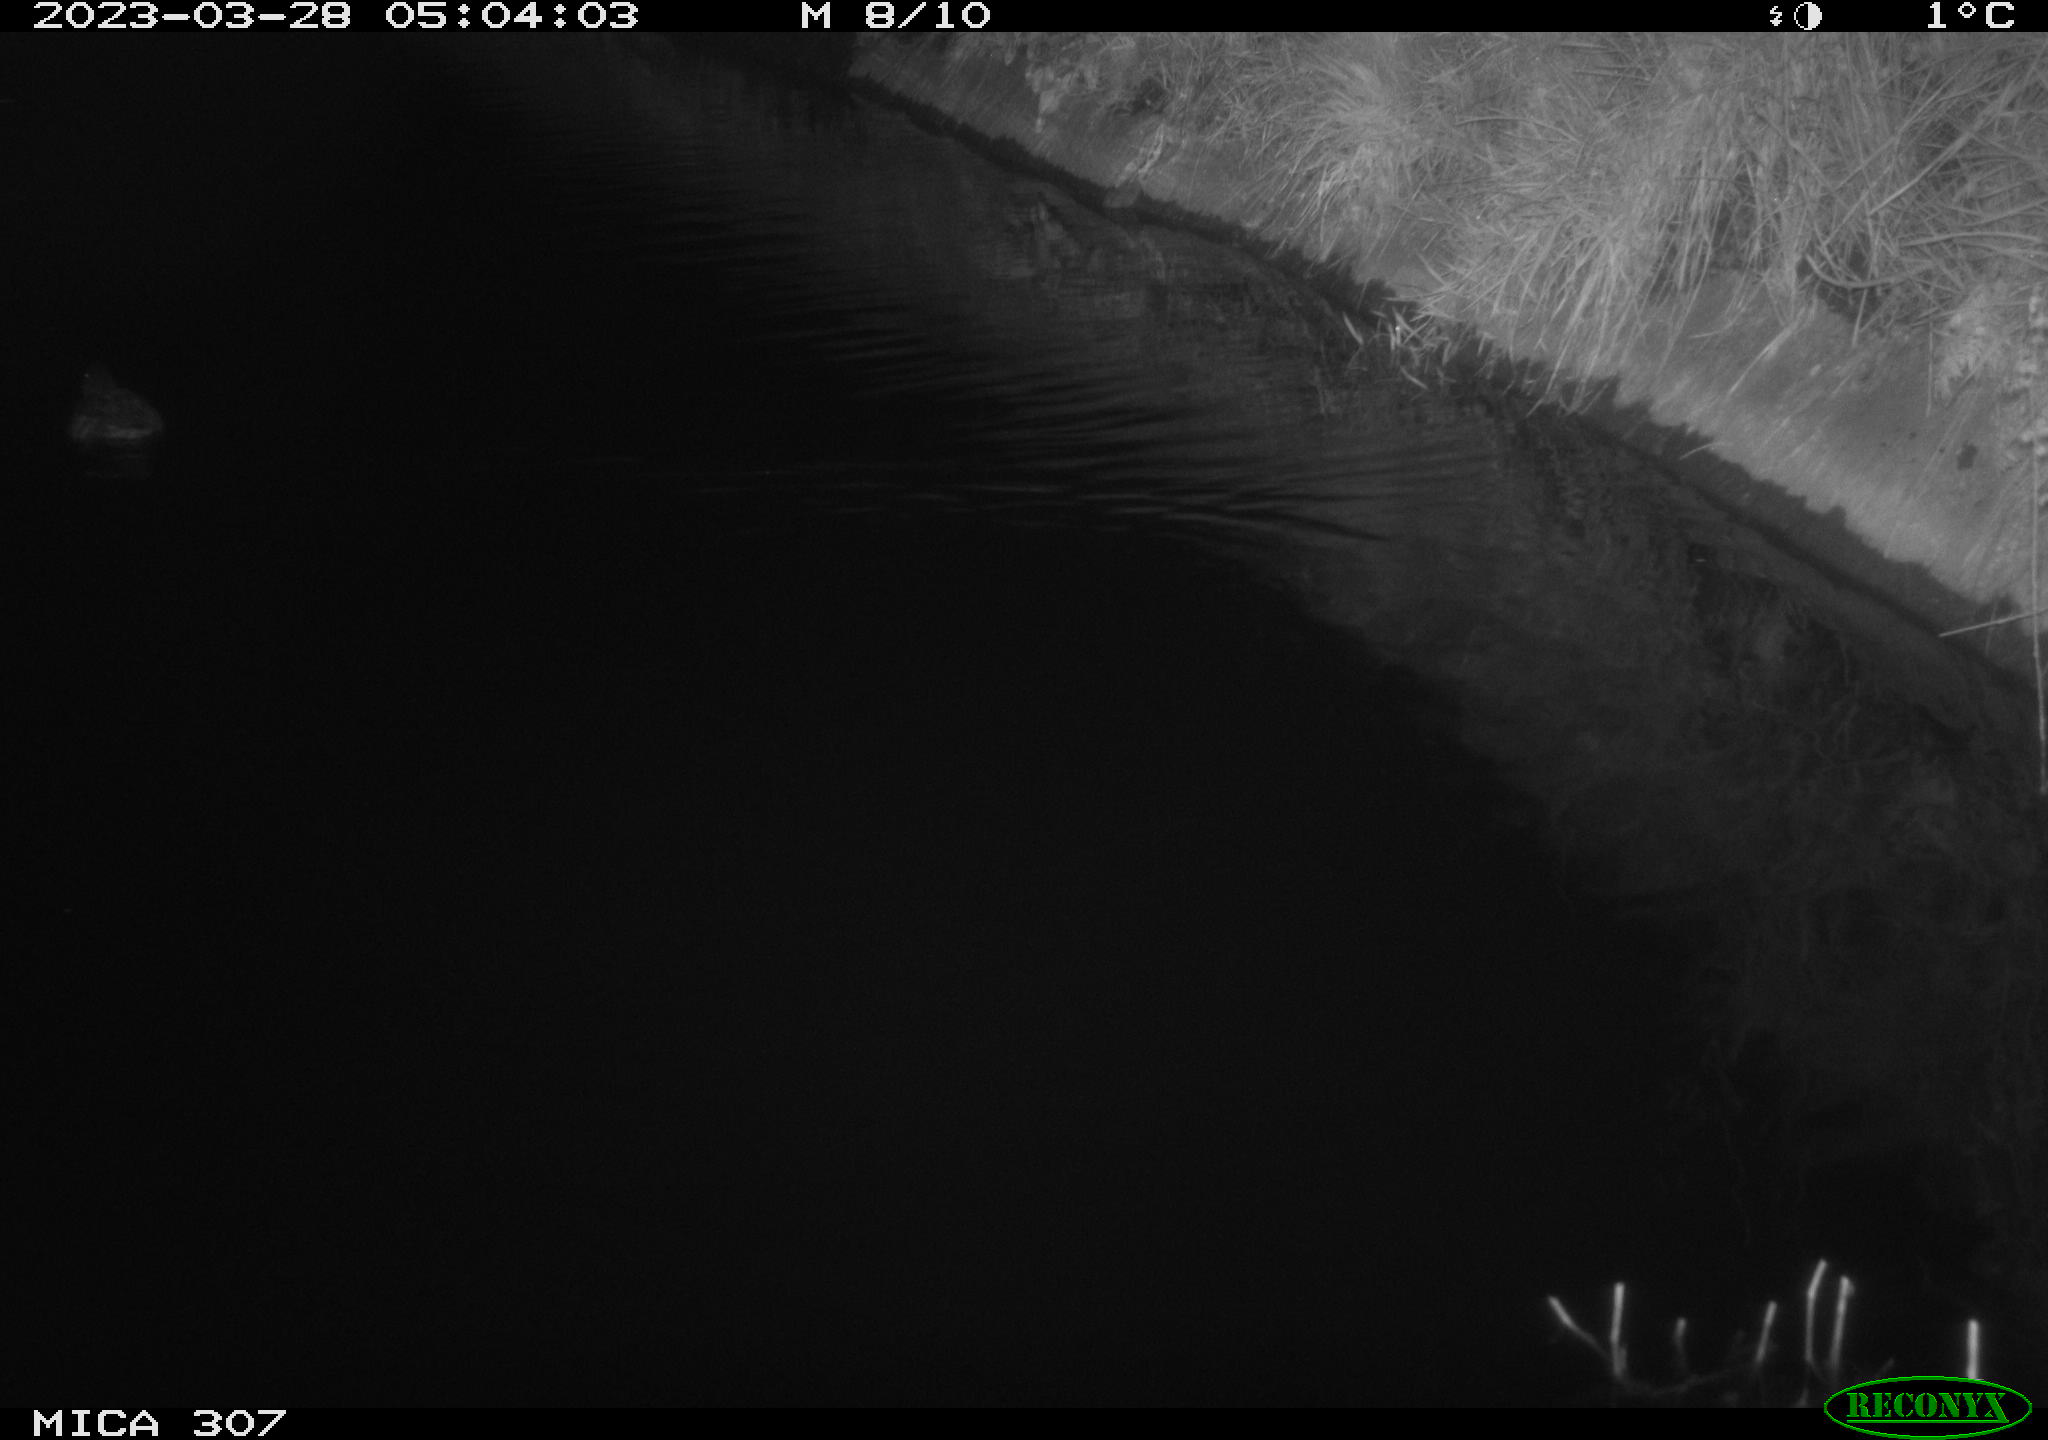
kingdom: Animalia
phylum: Chordata
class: Aves
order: Anseriformes
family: Anatidae
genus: Anas
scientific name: Anas
